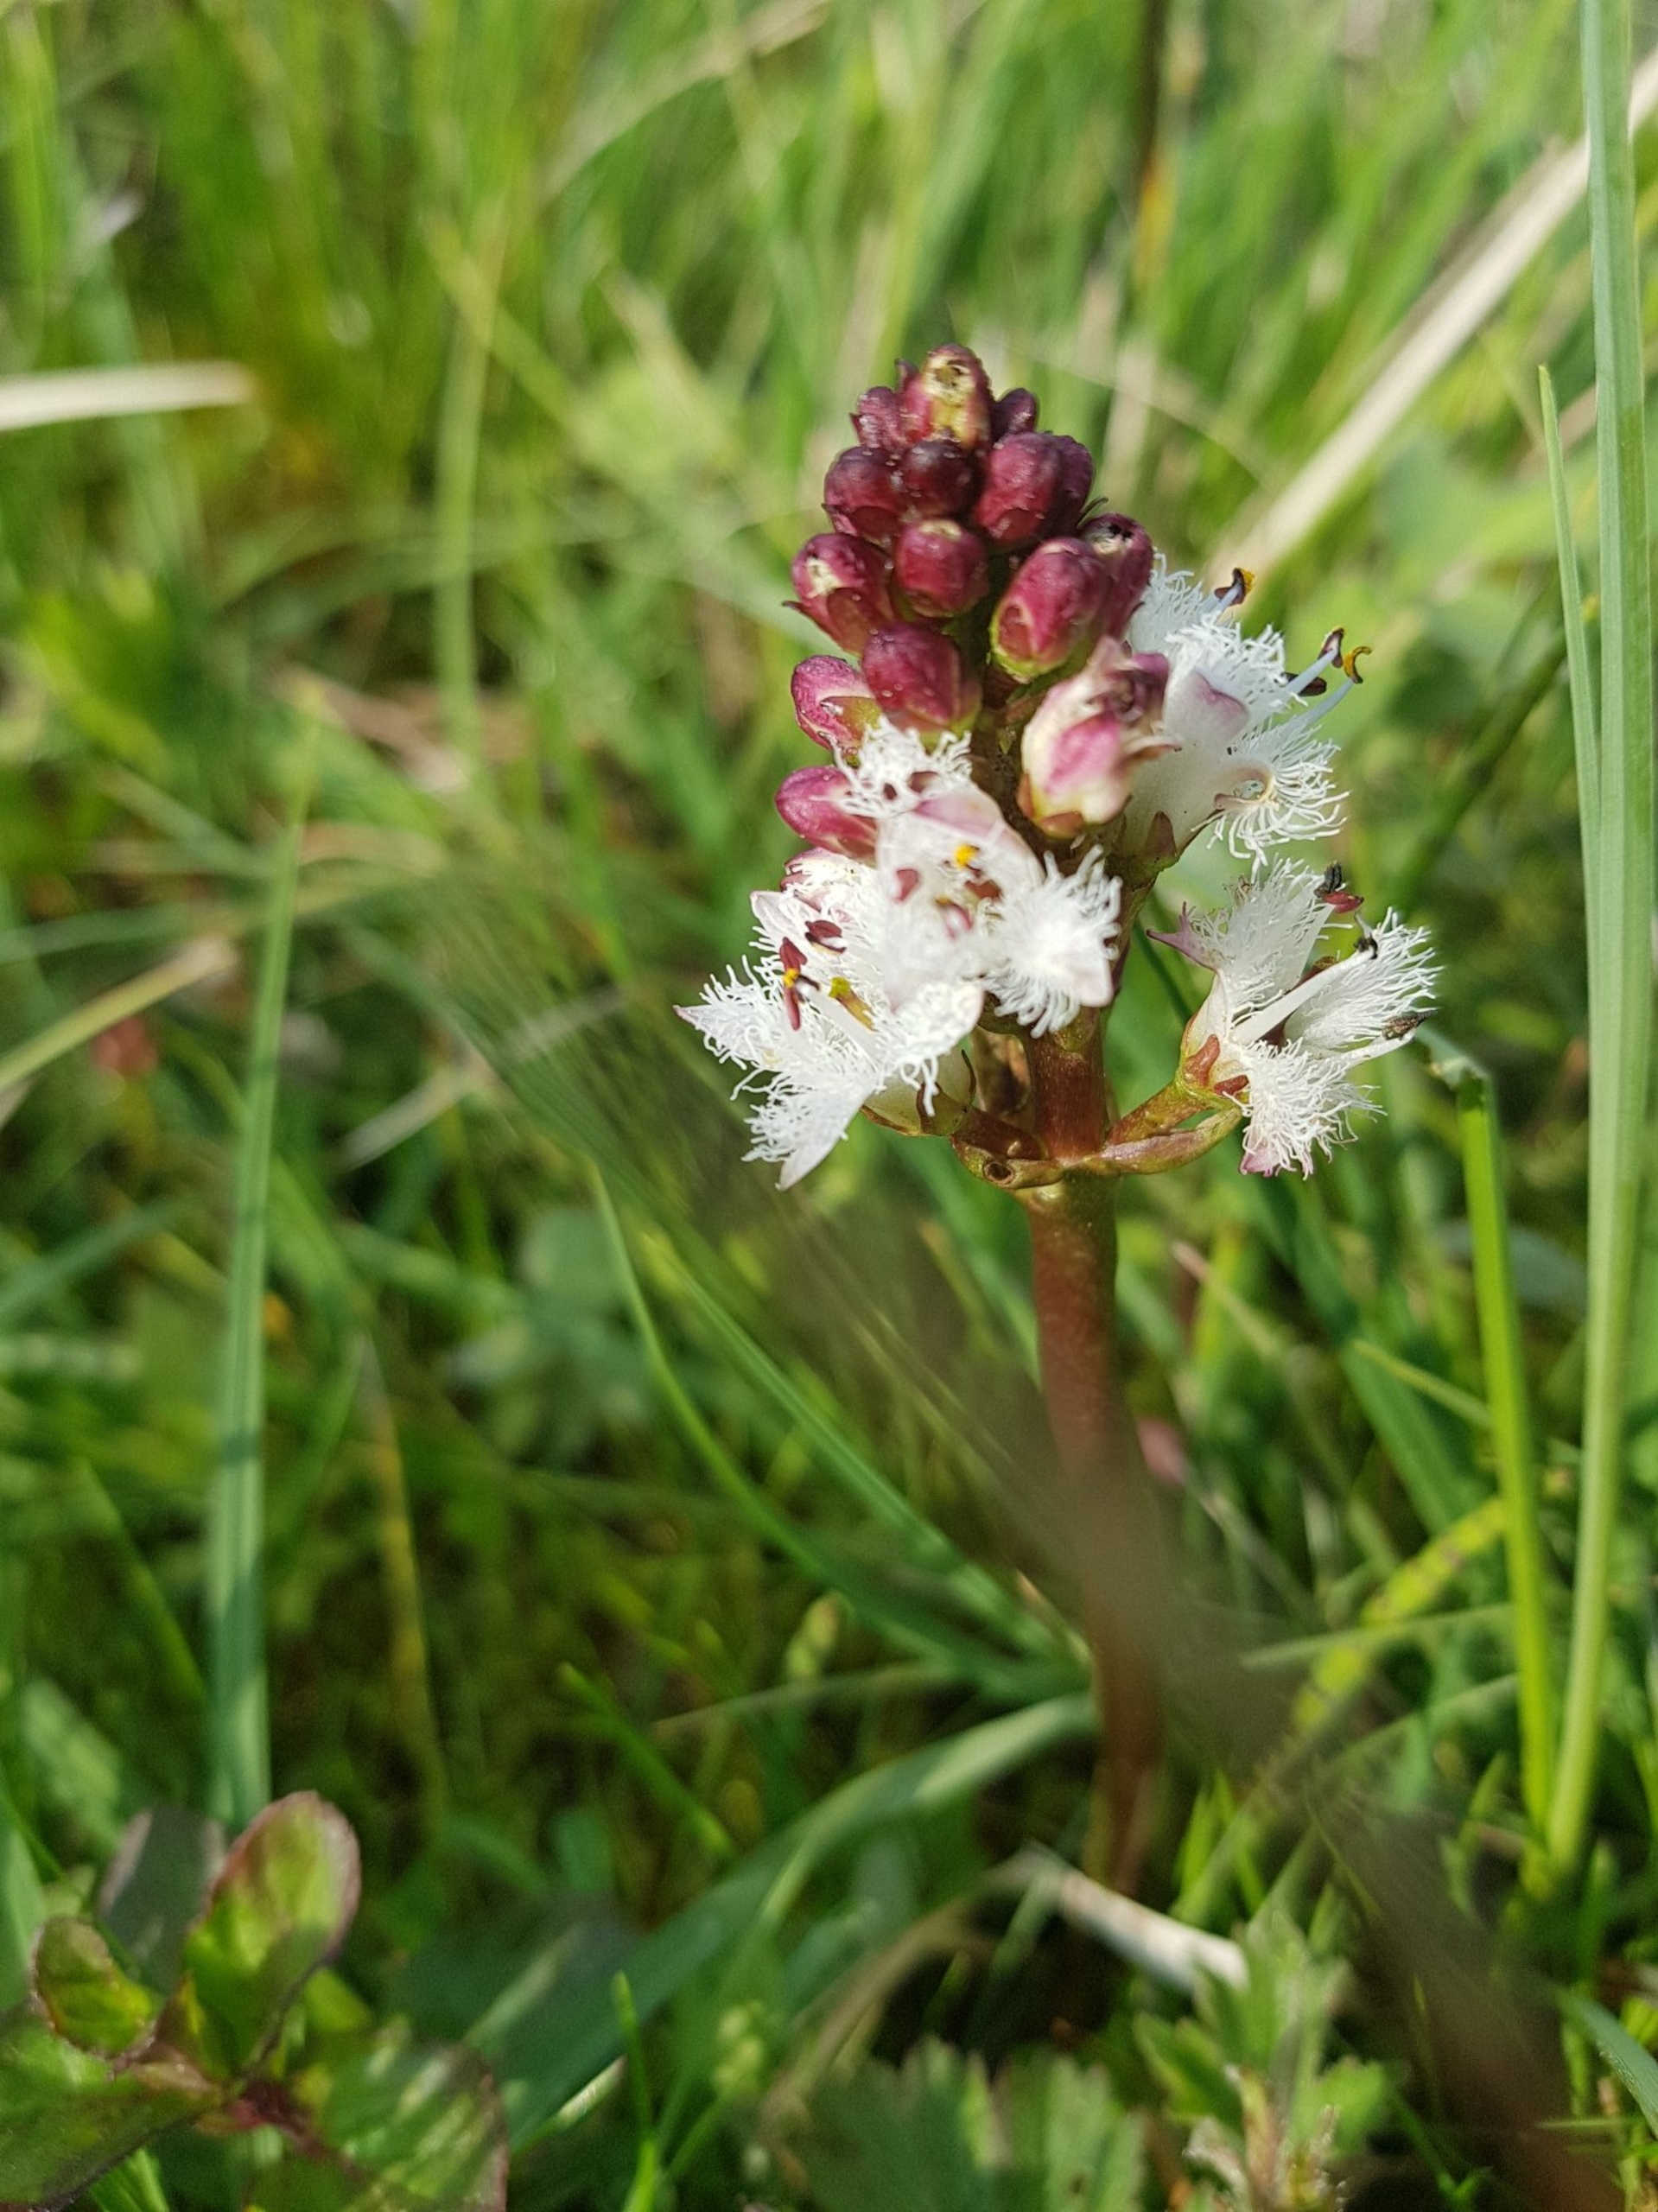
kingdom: Plantae
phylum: Tracheophyta
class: Magnoliopsida
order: Asterales
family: Menyanthaceae
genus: Menyanthes
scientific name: Menyanthes trifoliata
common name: Bukkeblad
